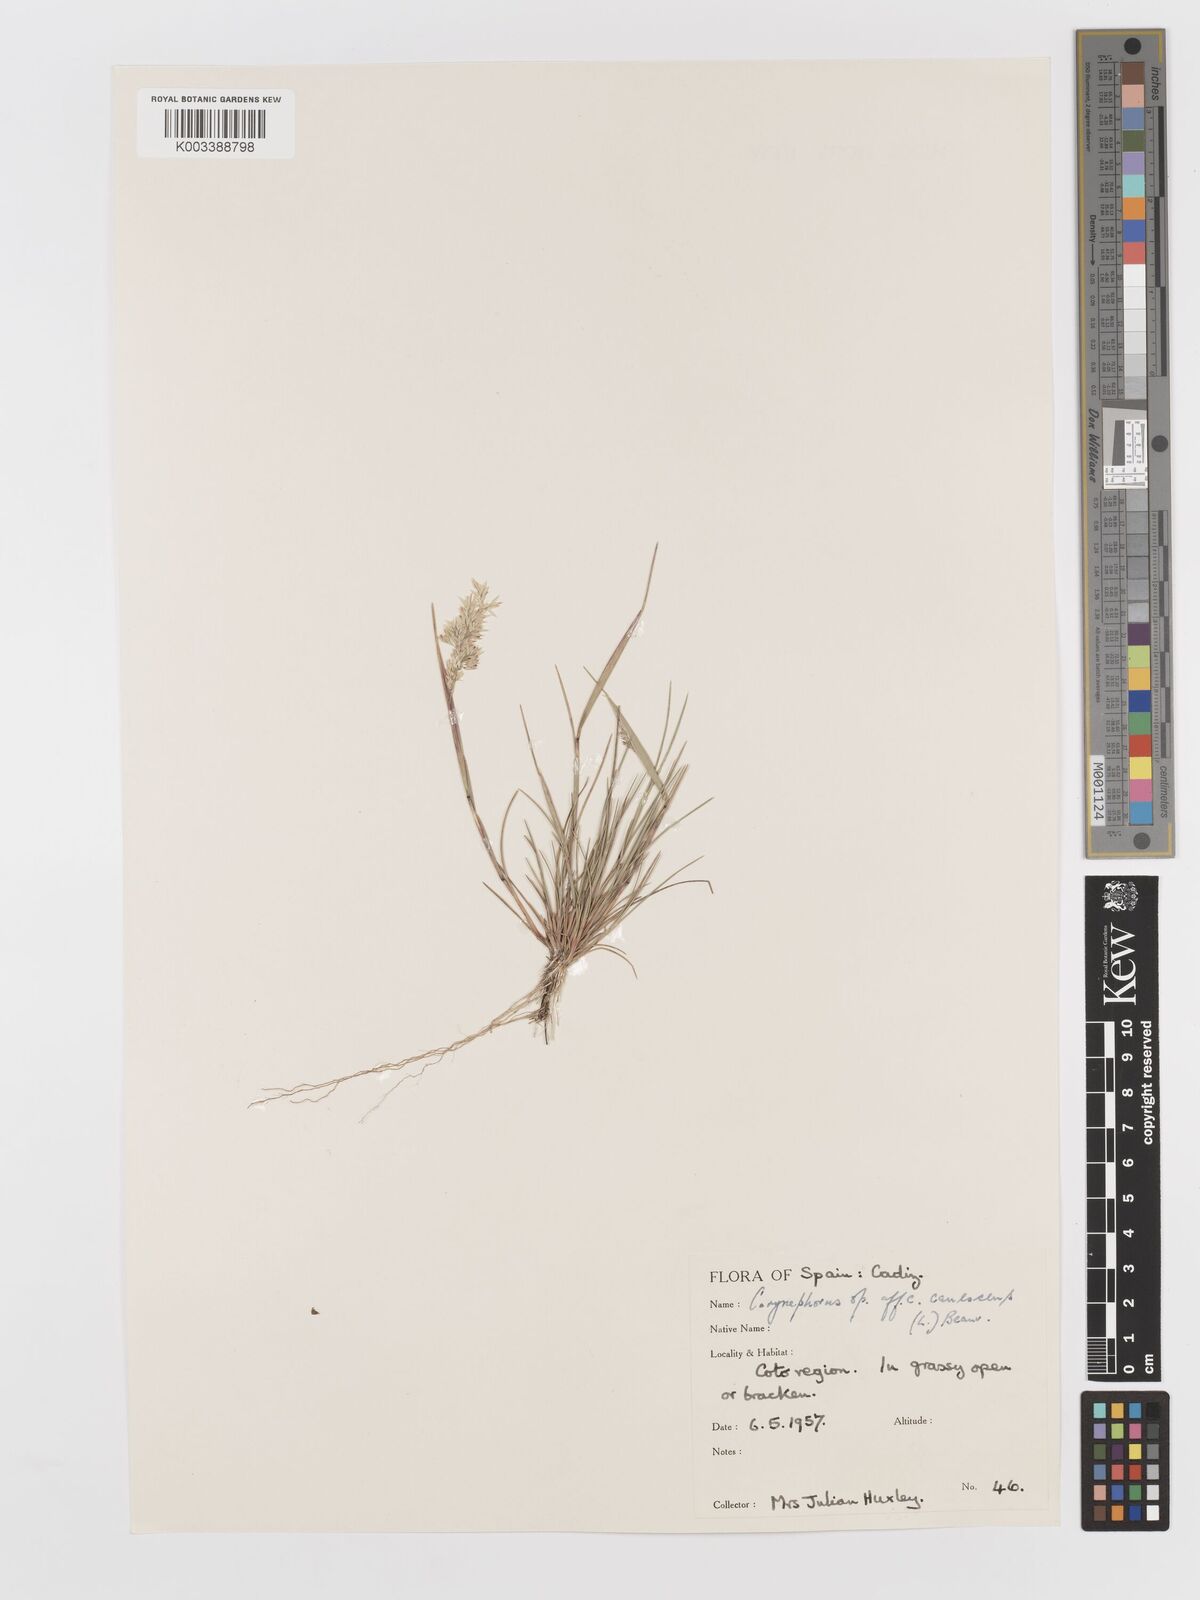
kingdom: Plantae
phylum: Tracheophyta
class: Liliopsida
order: Poales
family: Poaceae
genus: Corynephorus
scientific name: Corynephorus canescens
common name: Grey hair-grass
